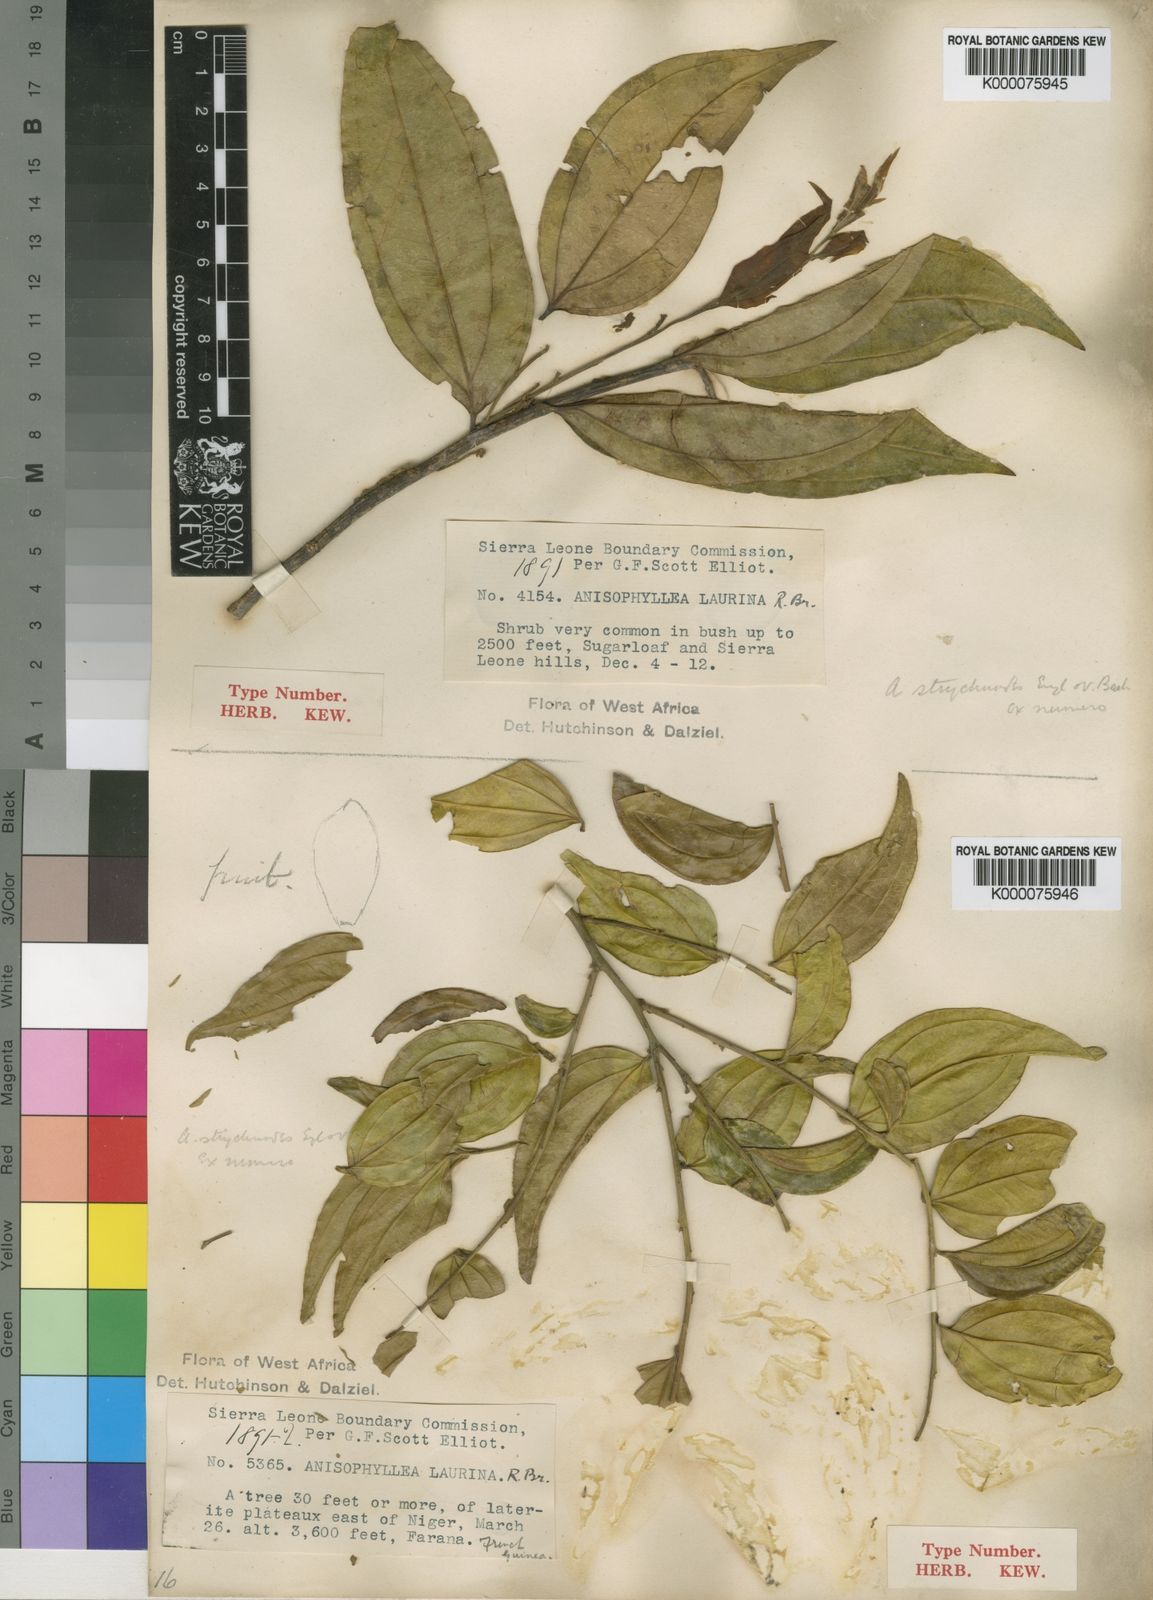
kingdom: Plantae
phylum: Tracheophyta
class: Magnoliopsida
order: Cucurbitales
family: Anisophylleaceae
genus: Anisophyllea
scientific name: Anisophyllea laurina
